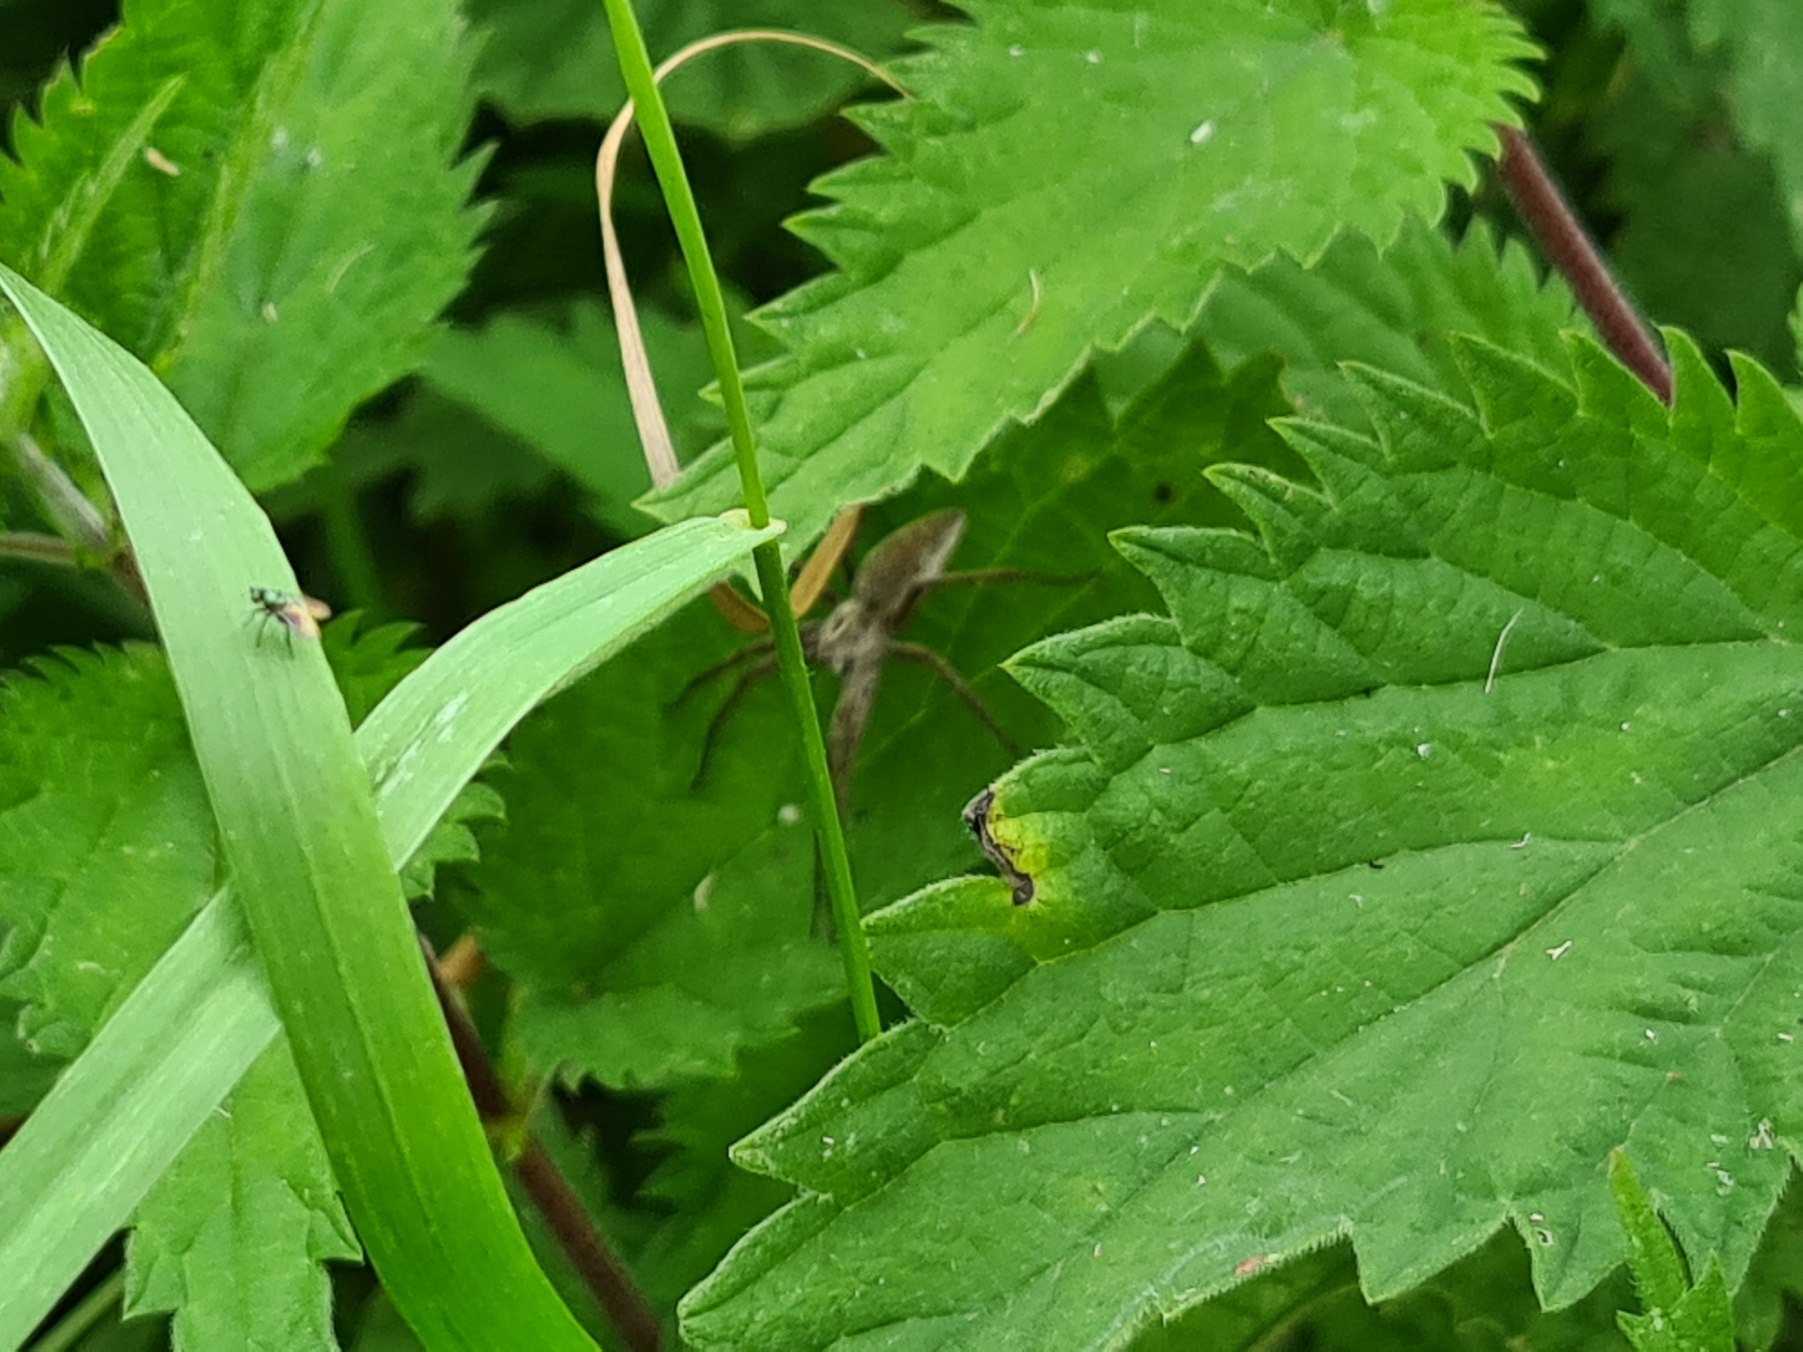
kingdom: Animalia
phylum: Arthropoda
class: Arachnida
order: Araneae
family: Pisauridae
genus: Pisaura
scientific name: Pisaura mirabilis
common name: Almindelig rovedderkop
